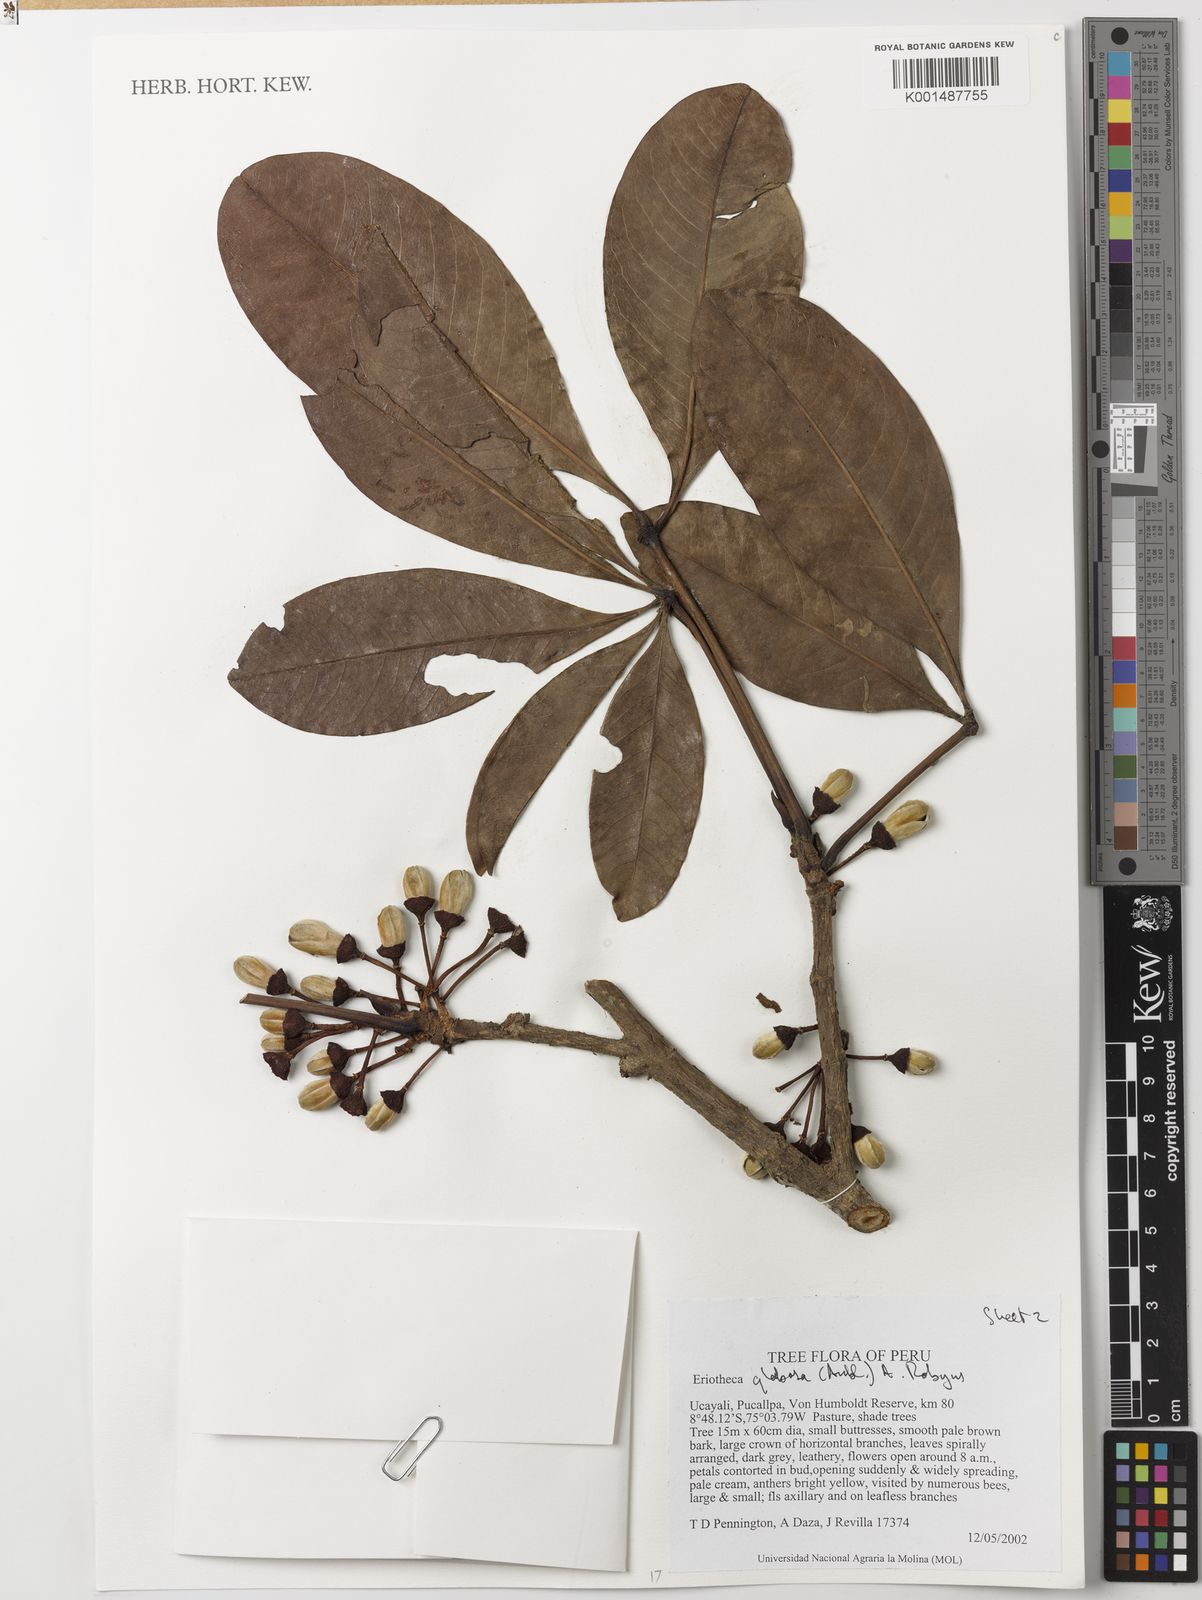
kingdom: Plantae
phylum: Tracheophyta
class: Magnoliopsida
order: Malvales
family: Malvaceae
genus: Eriotheca
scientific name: Eriotheca globosa
